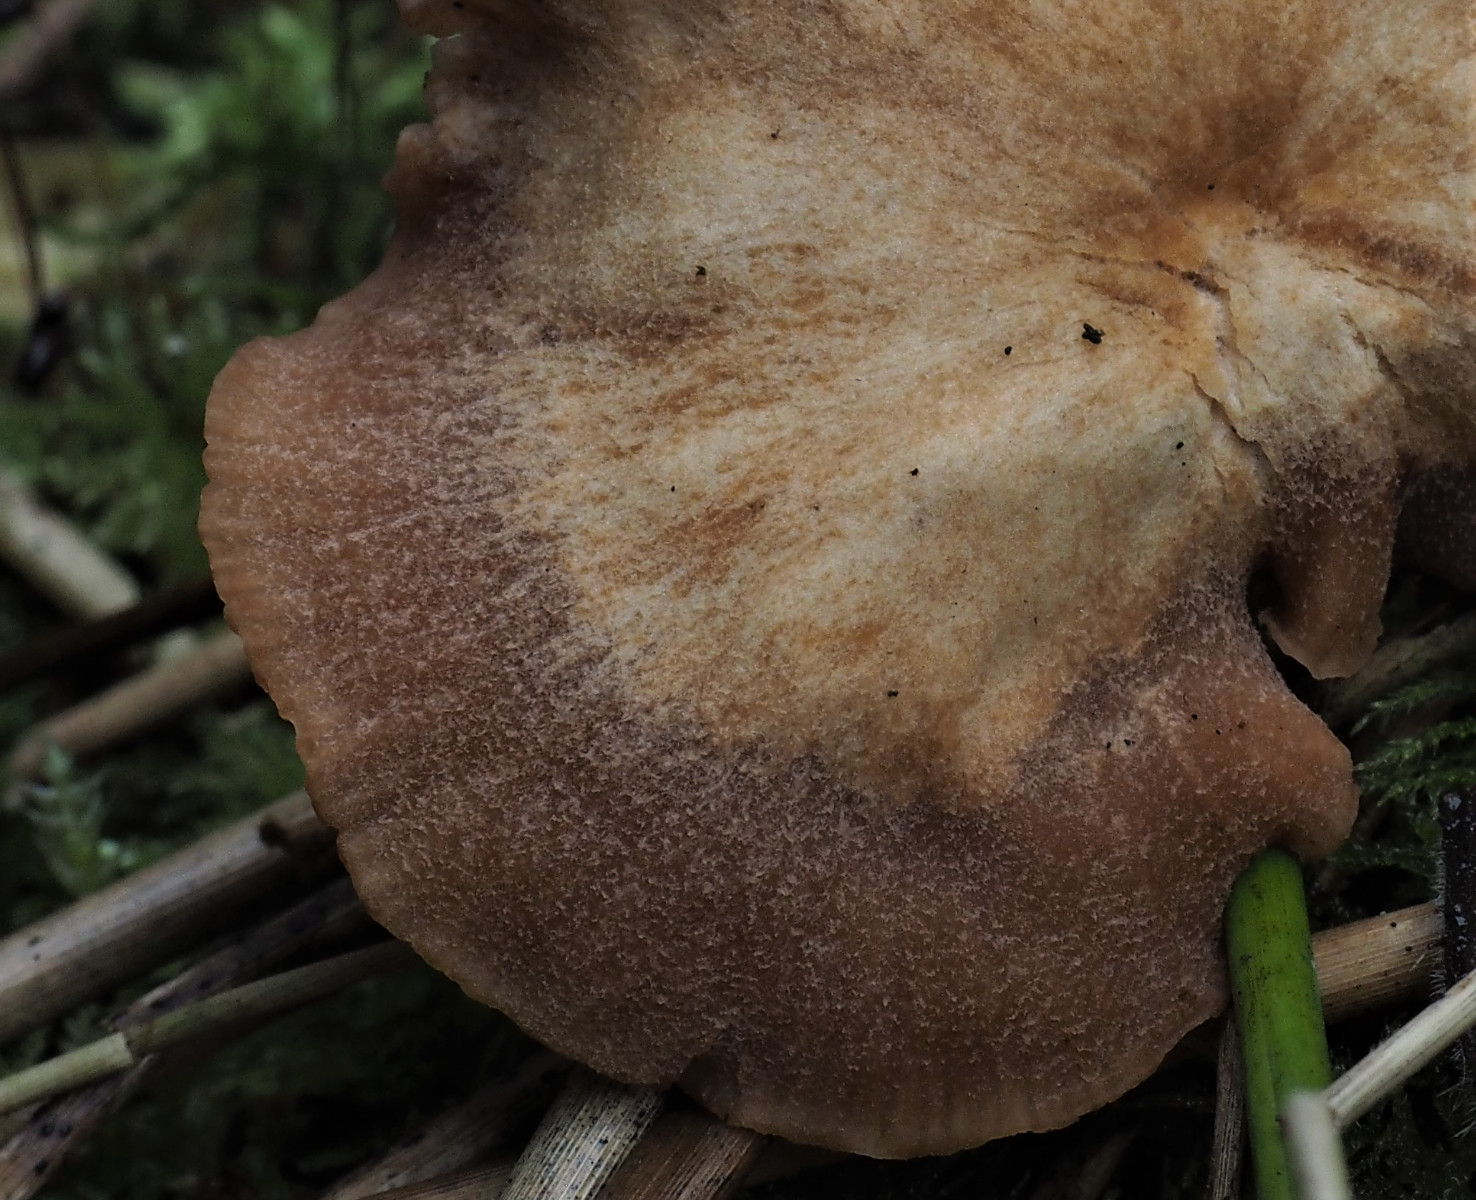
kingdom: Fungi
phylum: Basidiomycota
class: Agaricomycetes
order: Agaricales
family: Hydnangiaceae
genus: Laccaria
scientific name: Laccaria proxima
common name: stor ametysthat
